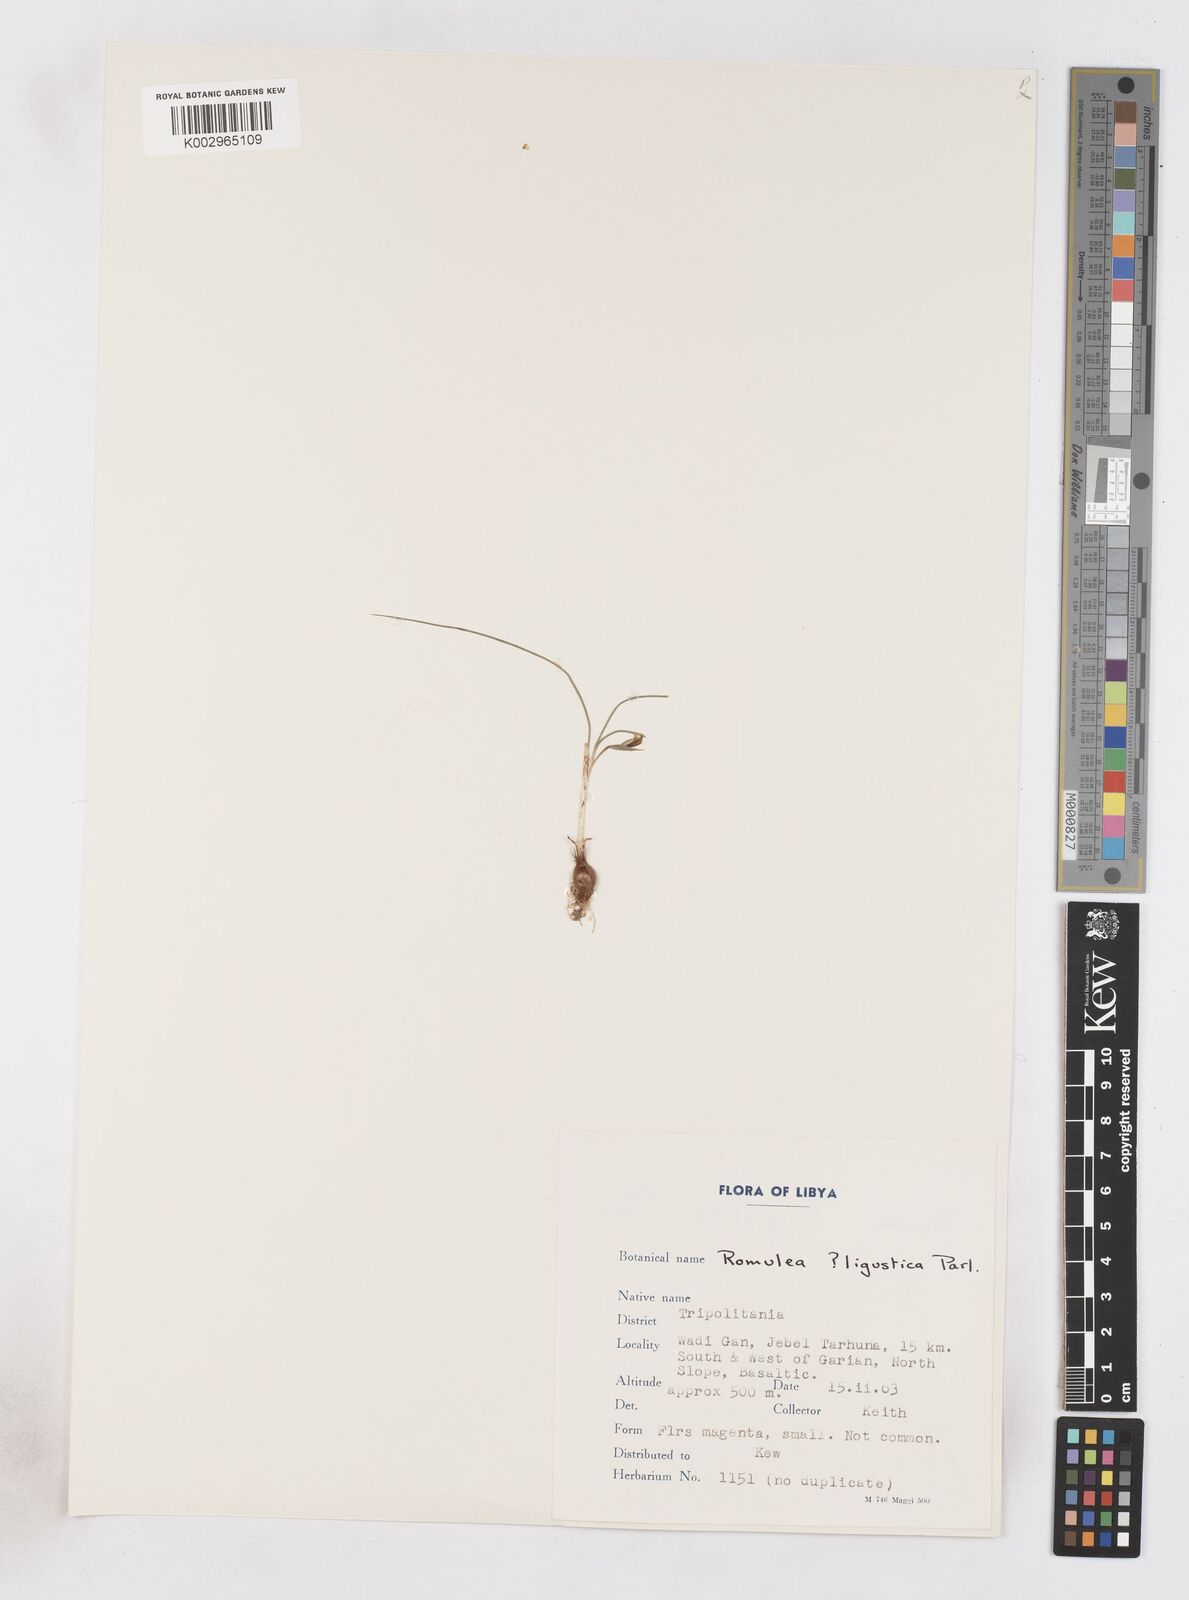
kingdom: Plantae
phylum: Tracheophyta
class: Liliopsida
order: Asparagales
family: Iridaceae
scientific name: Iridaceae
